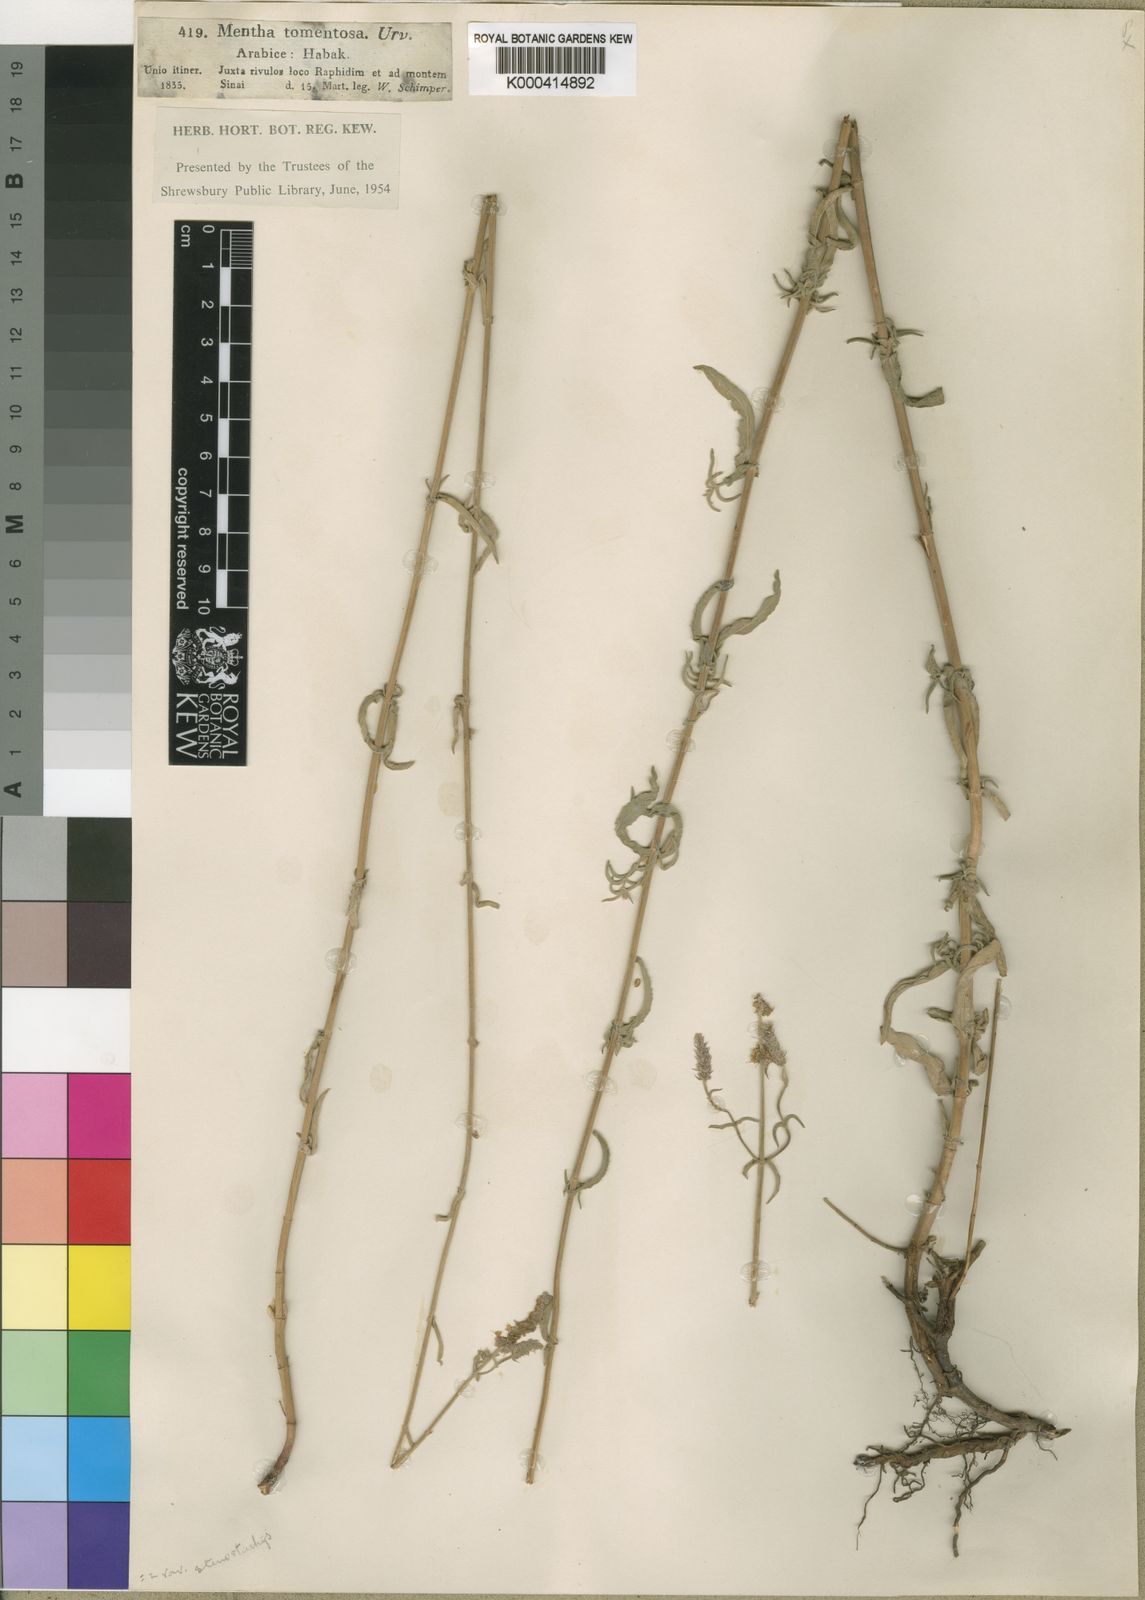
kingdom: Plantae
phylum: Tracheophyta
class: Magnoliopsida
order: Lamiales
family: Lamiaceae
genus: Mentha
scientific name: Mentha longifolia
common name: Horse mint
